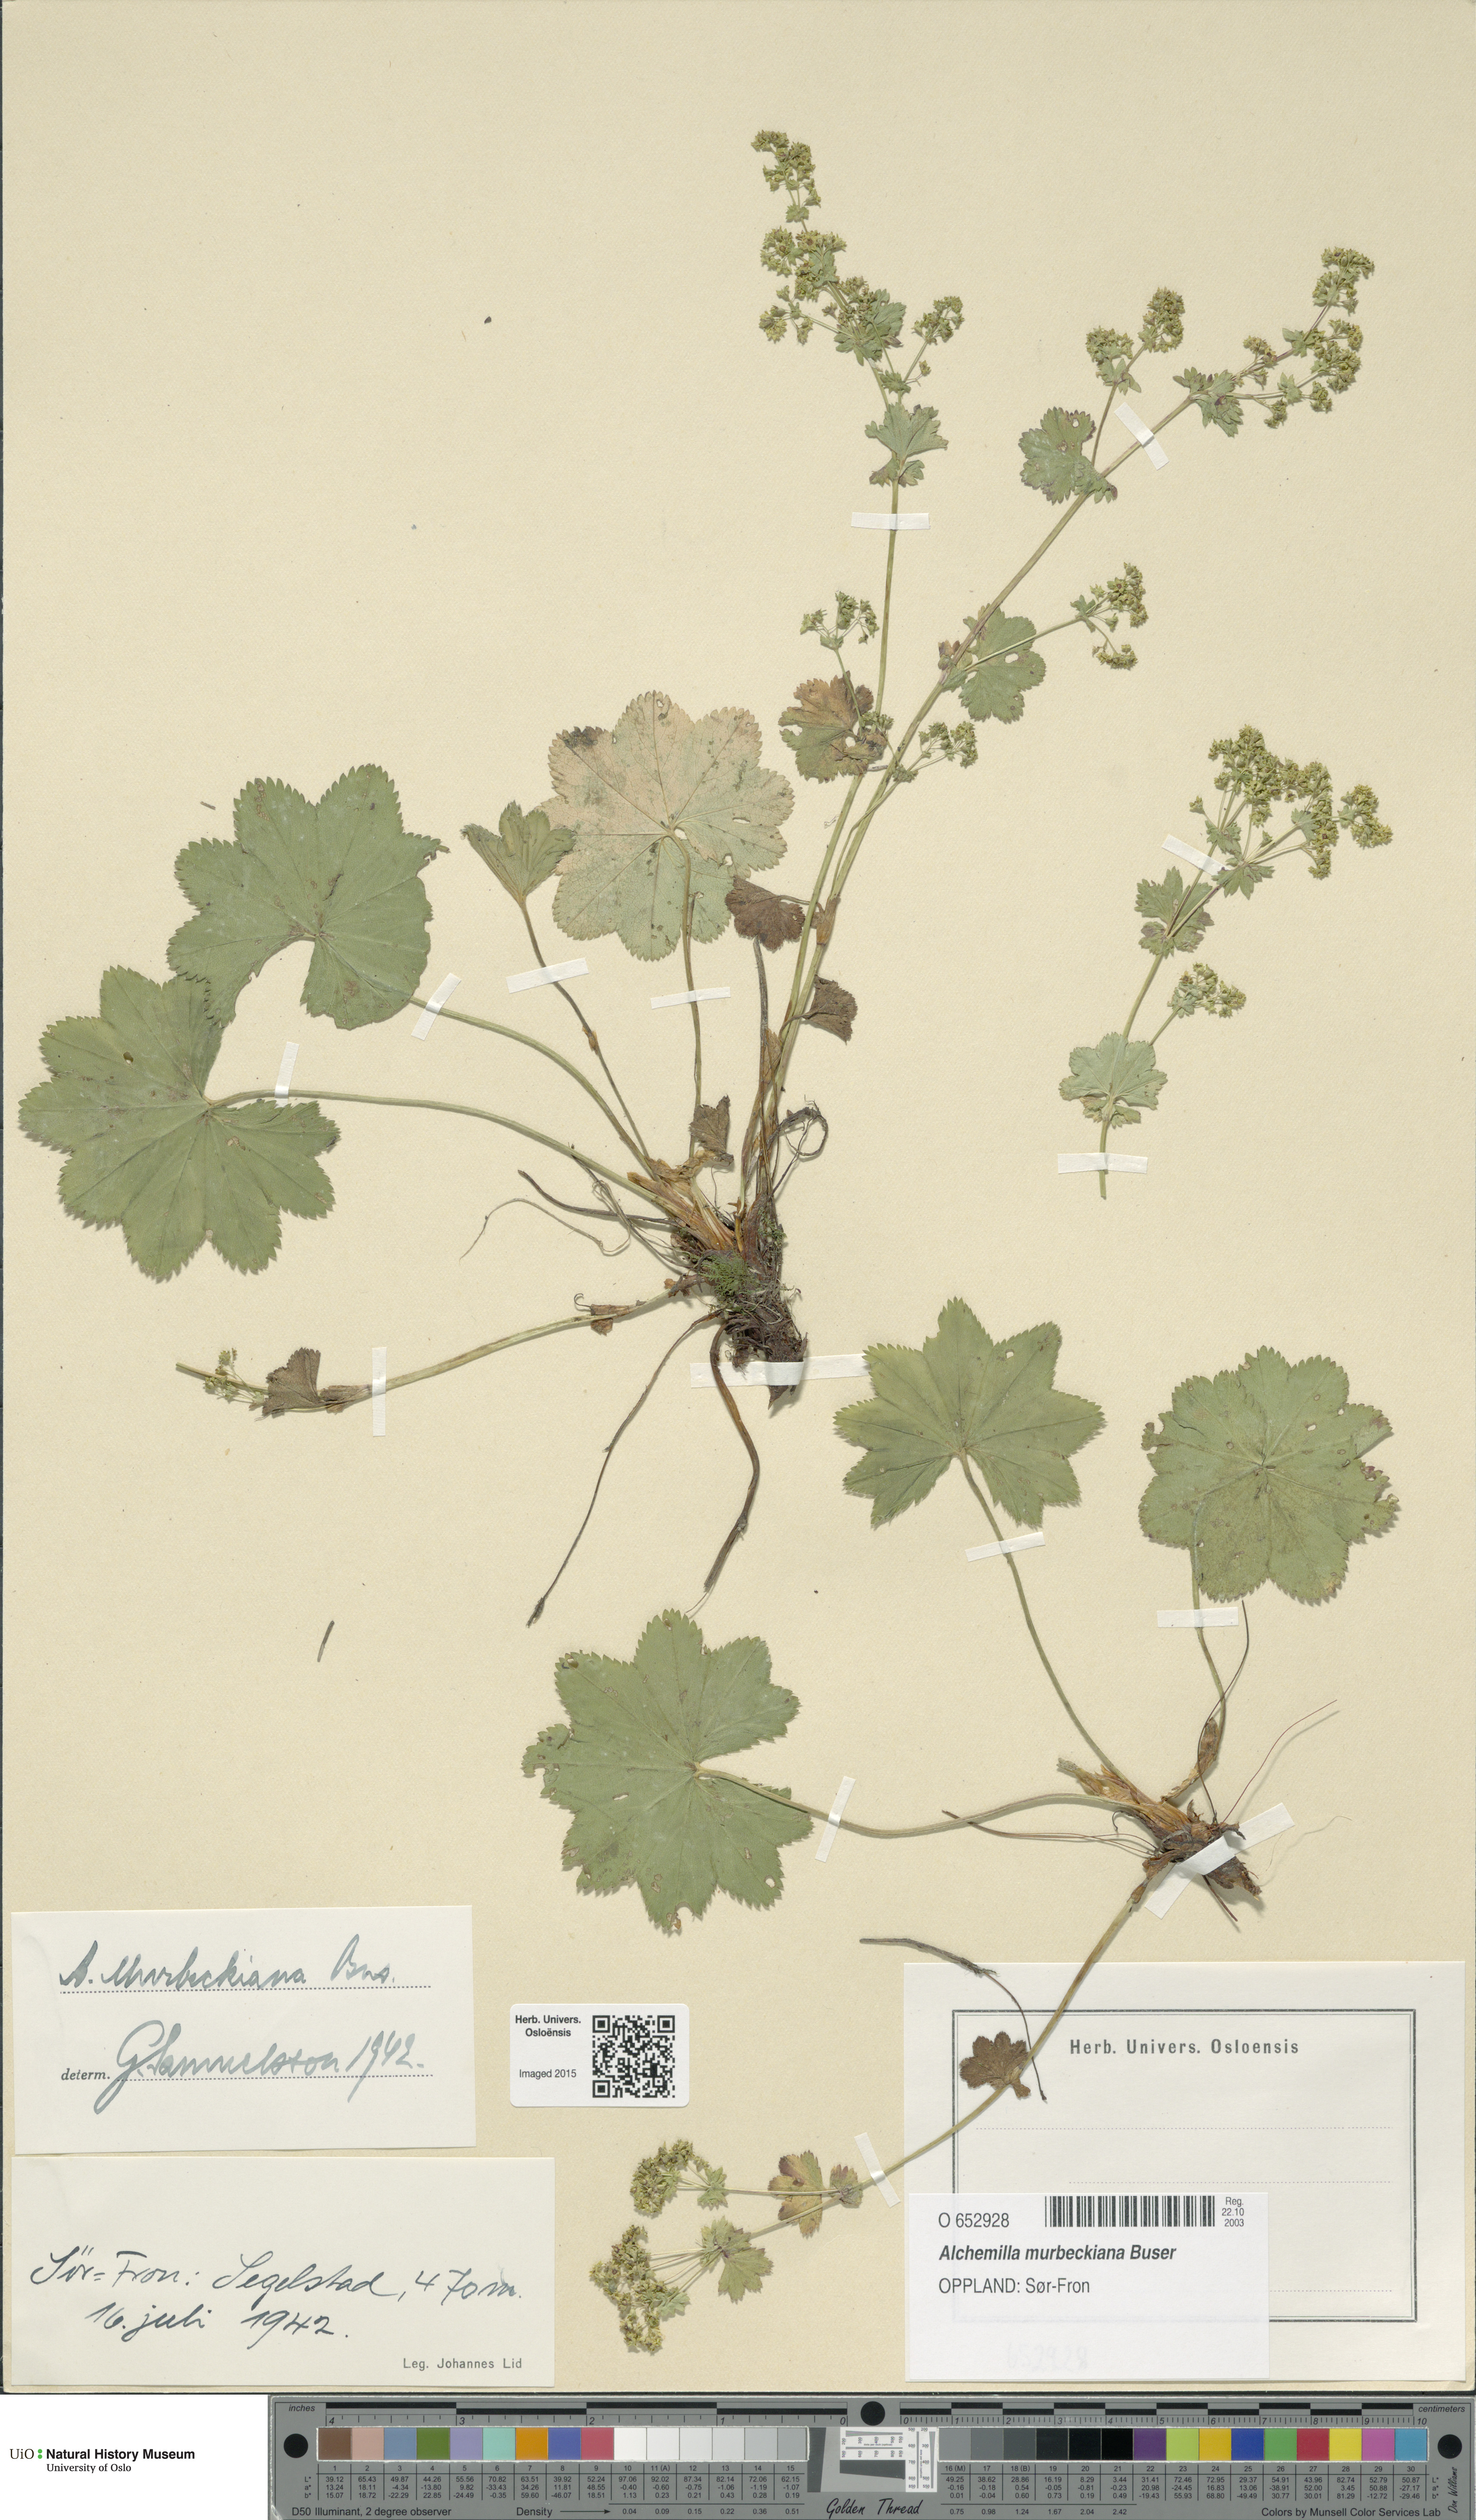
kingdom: Plantae
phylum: Tracheophyta
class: Magnoliopsida
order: Rosales
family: Rosaceae
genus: Alchemilla
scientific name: Alchemilla murbeckiana
